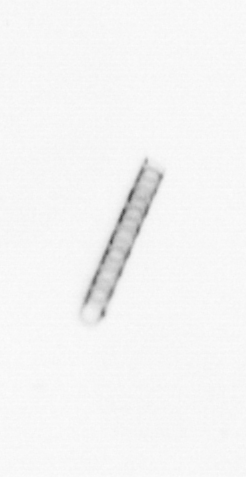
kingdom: Chromista
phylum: Ochrophyta
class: Bacillariophyceae
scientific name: Bacillariophyceae
